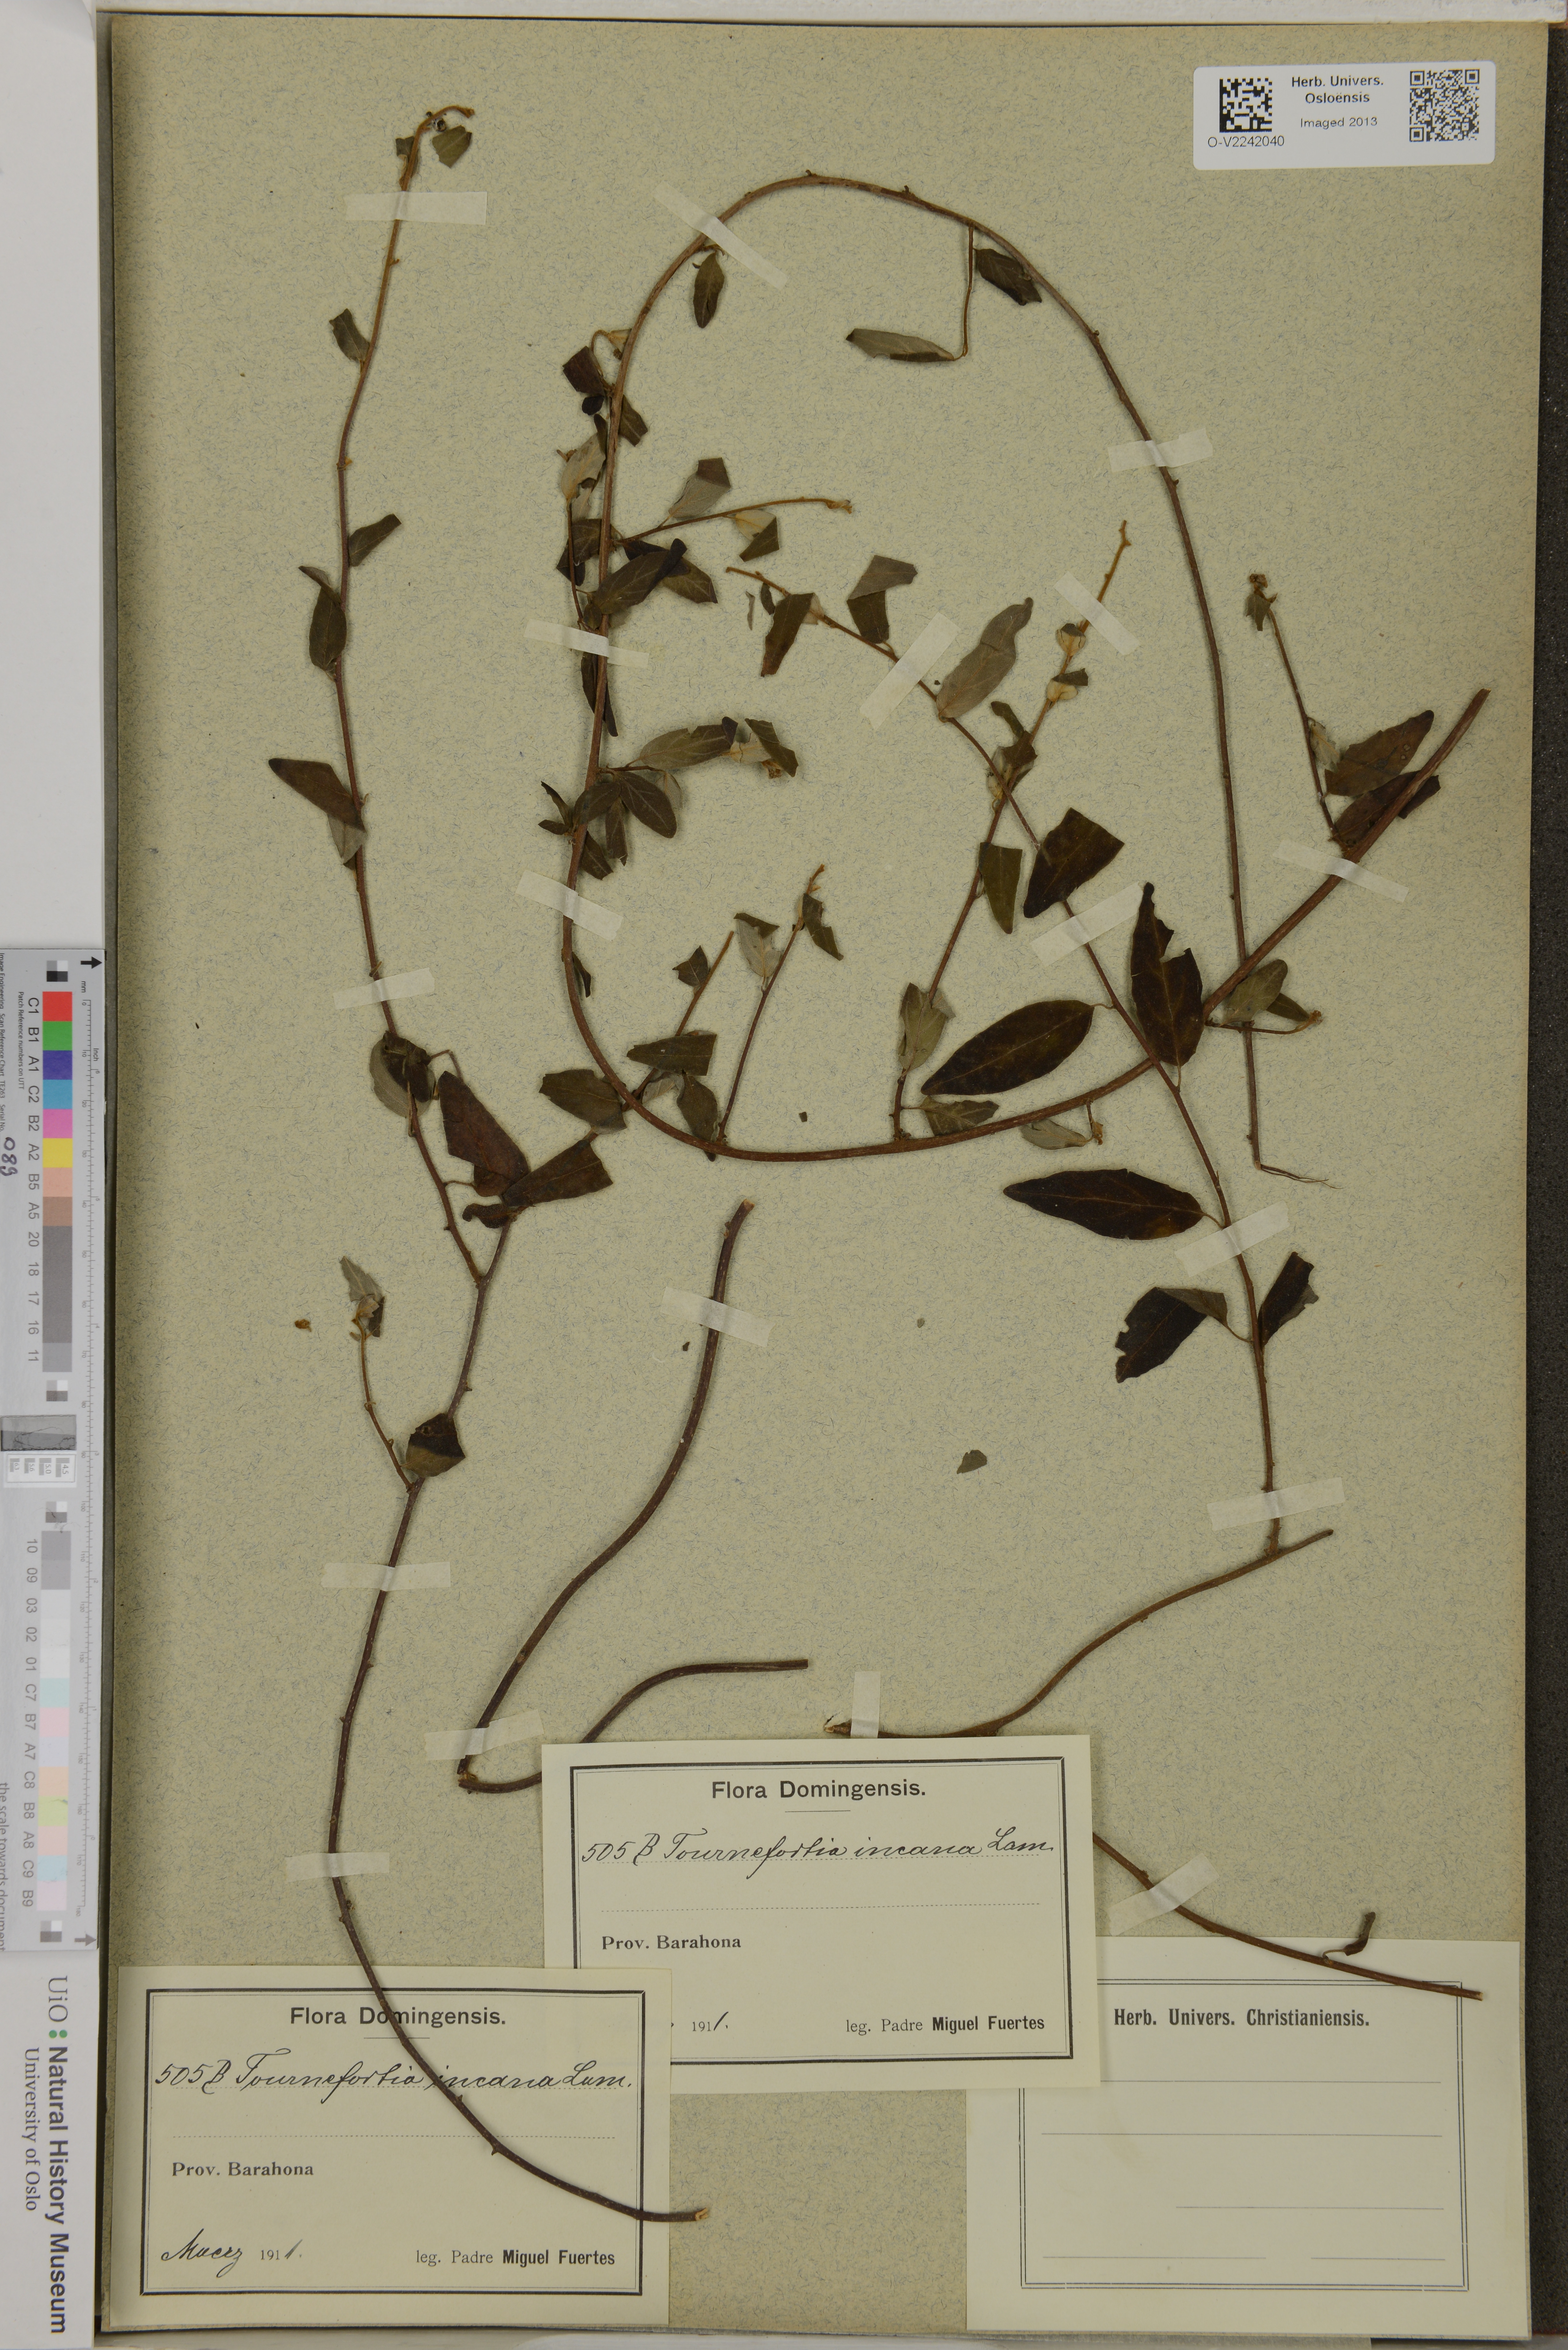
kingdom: Plantae
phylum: Tracheophyta
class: Magnoliopsida
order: Boraginales
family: Heliotropiaceae
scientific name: Heliotropiaceae
